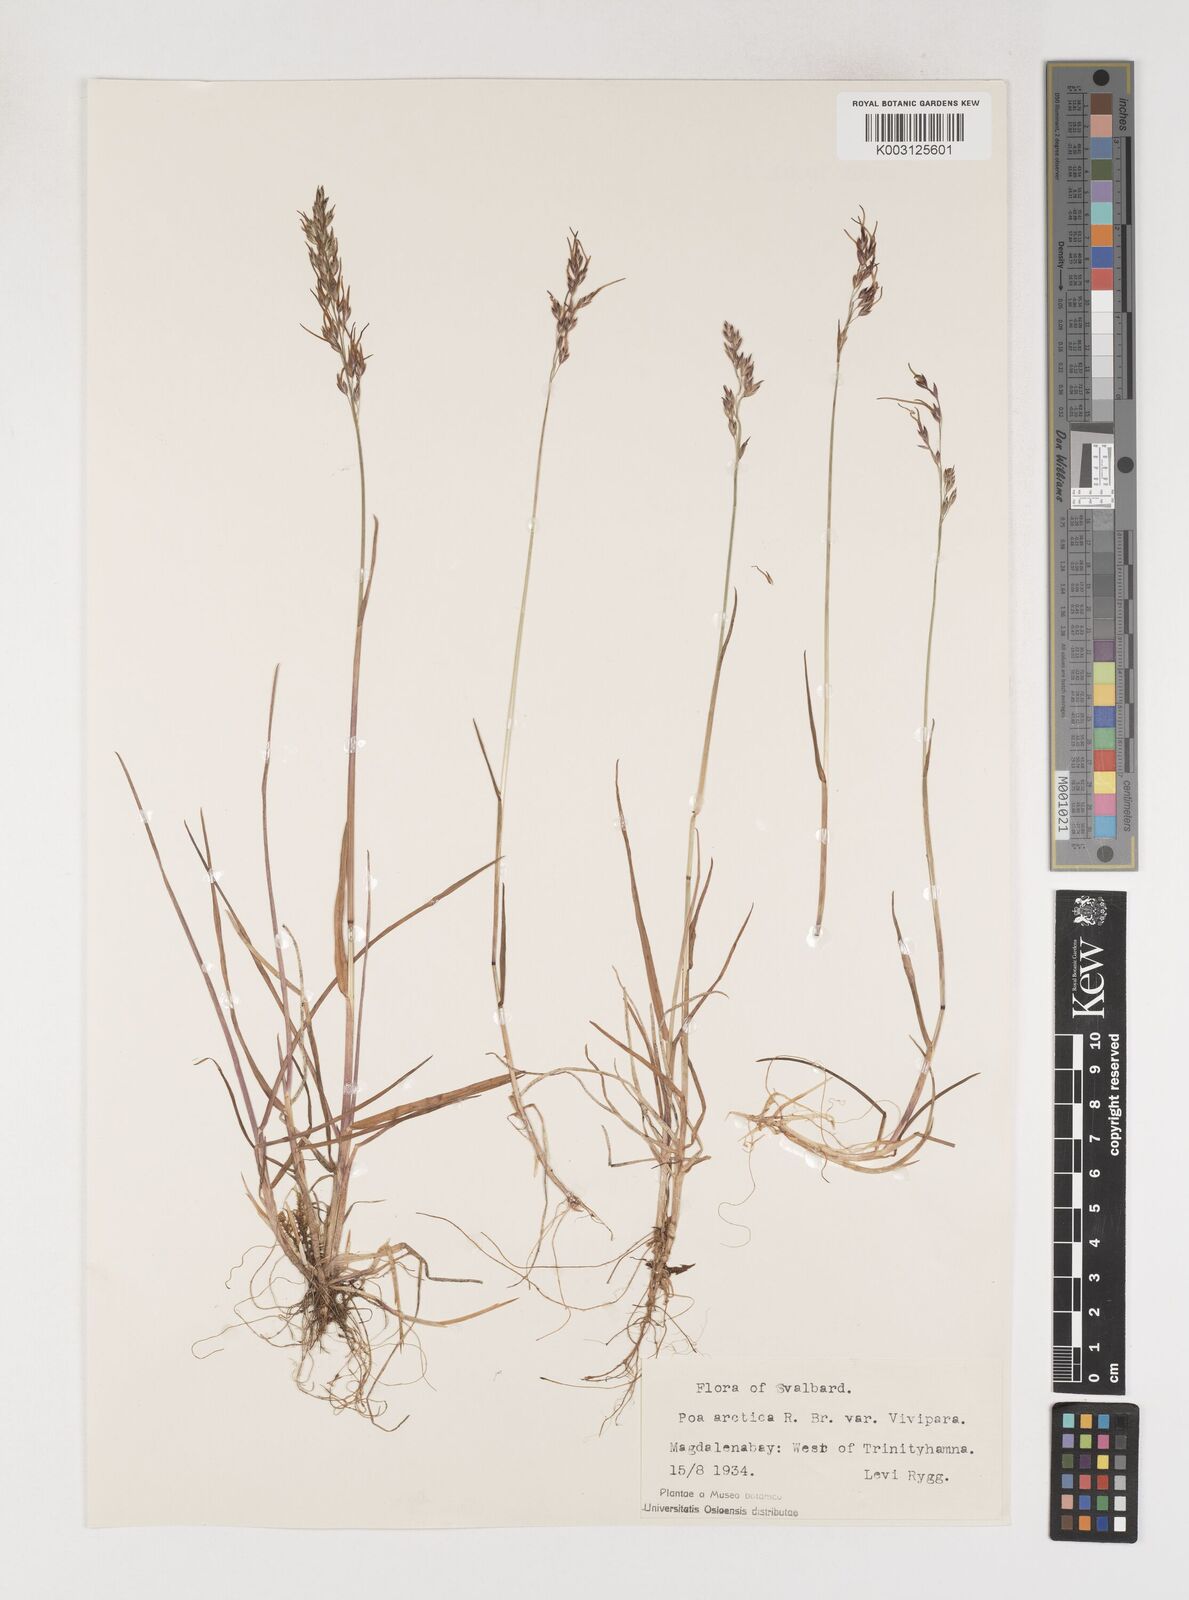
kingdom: Plantae
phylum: Tracheophyta
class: Liliopsida
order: Poales
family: Poaceae
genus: Poa
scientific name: Poa arctica
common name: Arctic bluegrass
